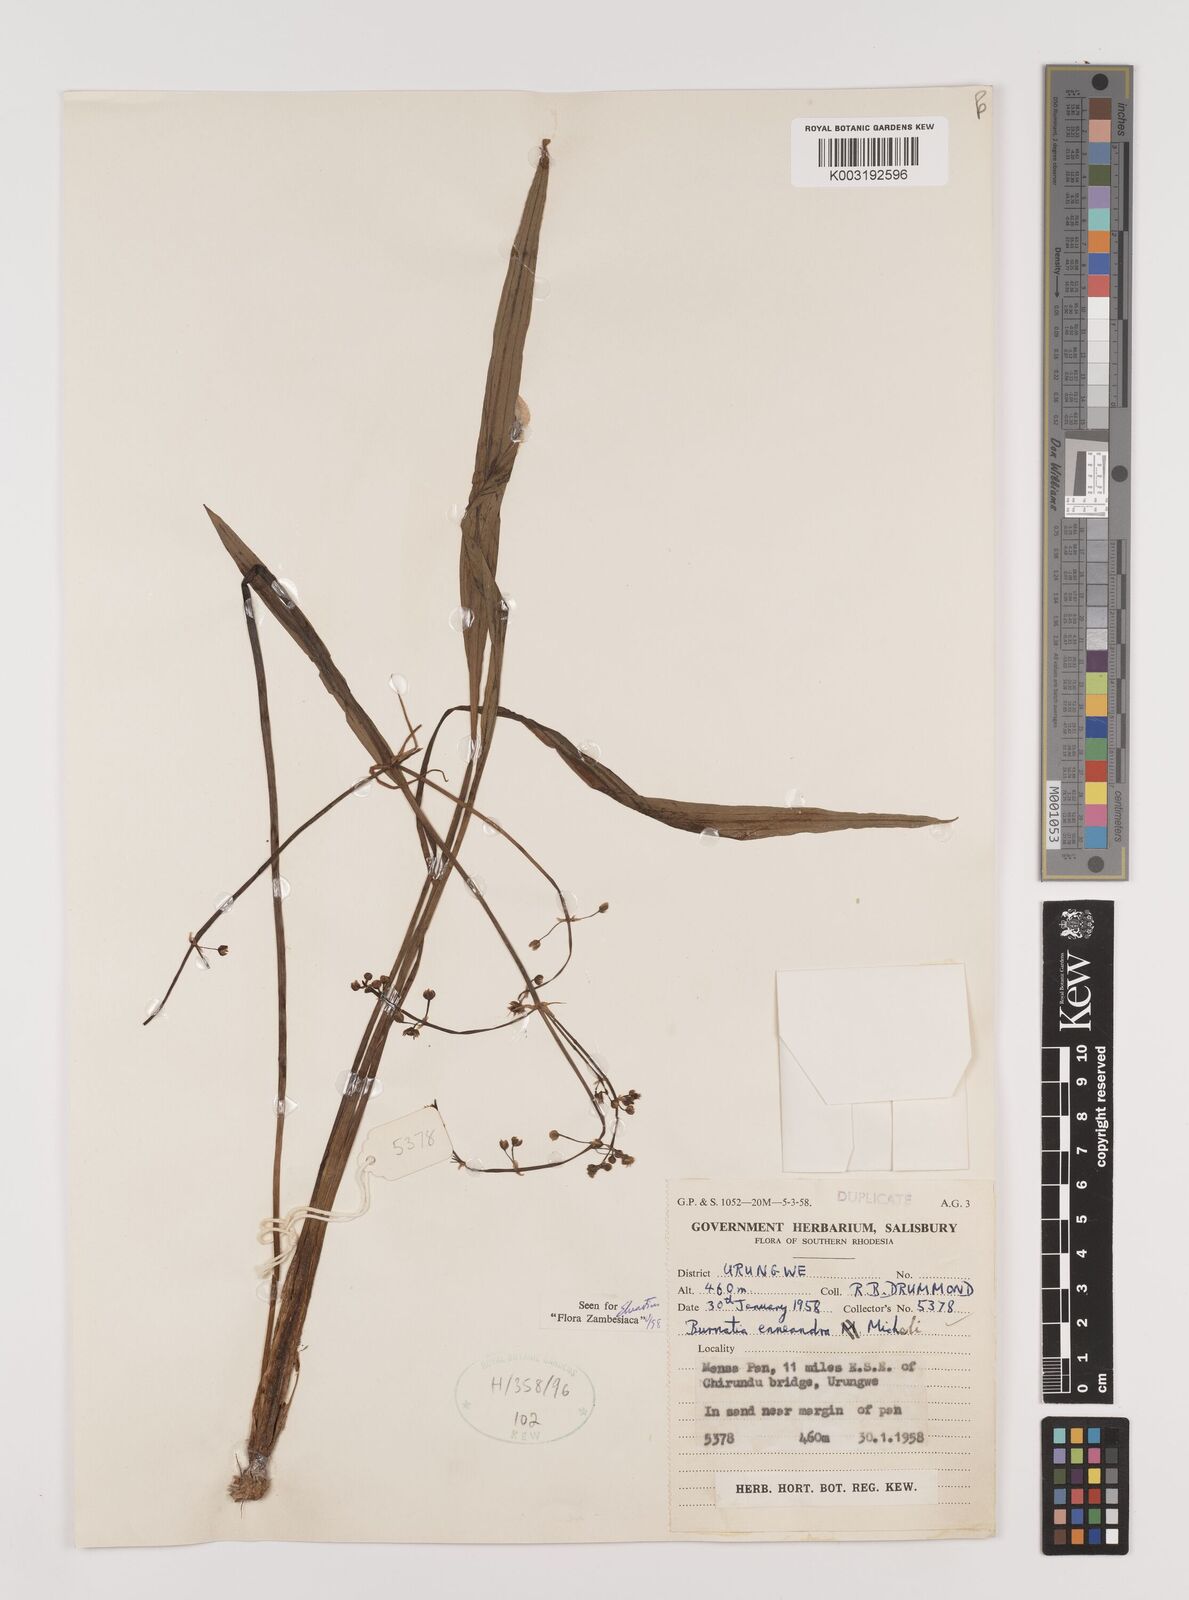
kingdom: Plantae
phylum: Tracheophyta
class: Liliopsida
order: Alismatales
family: Alismataceae
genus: Burnatia
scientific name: Burnatia enneandra
